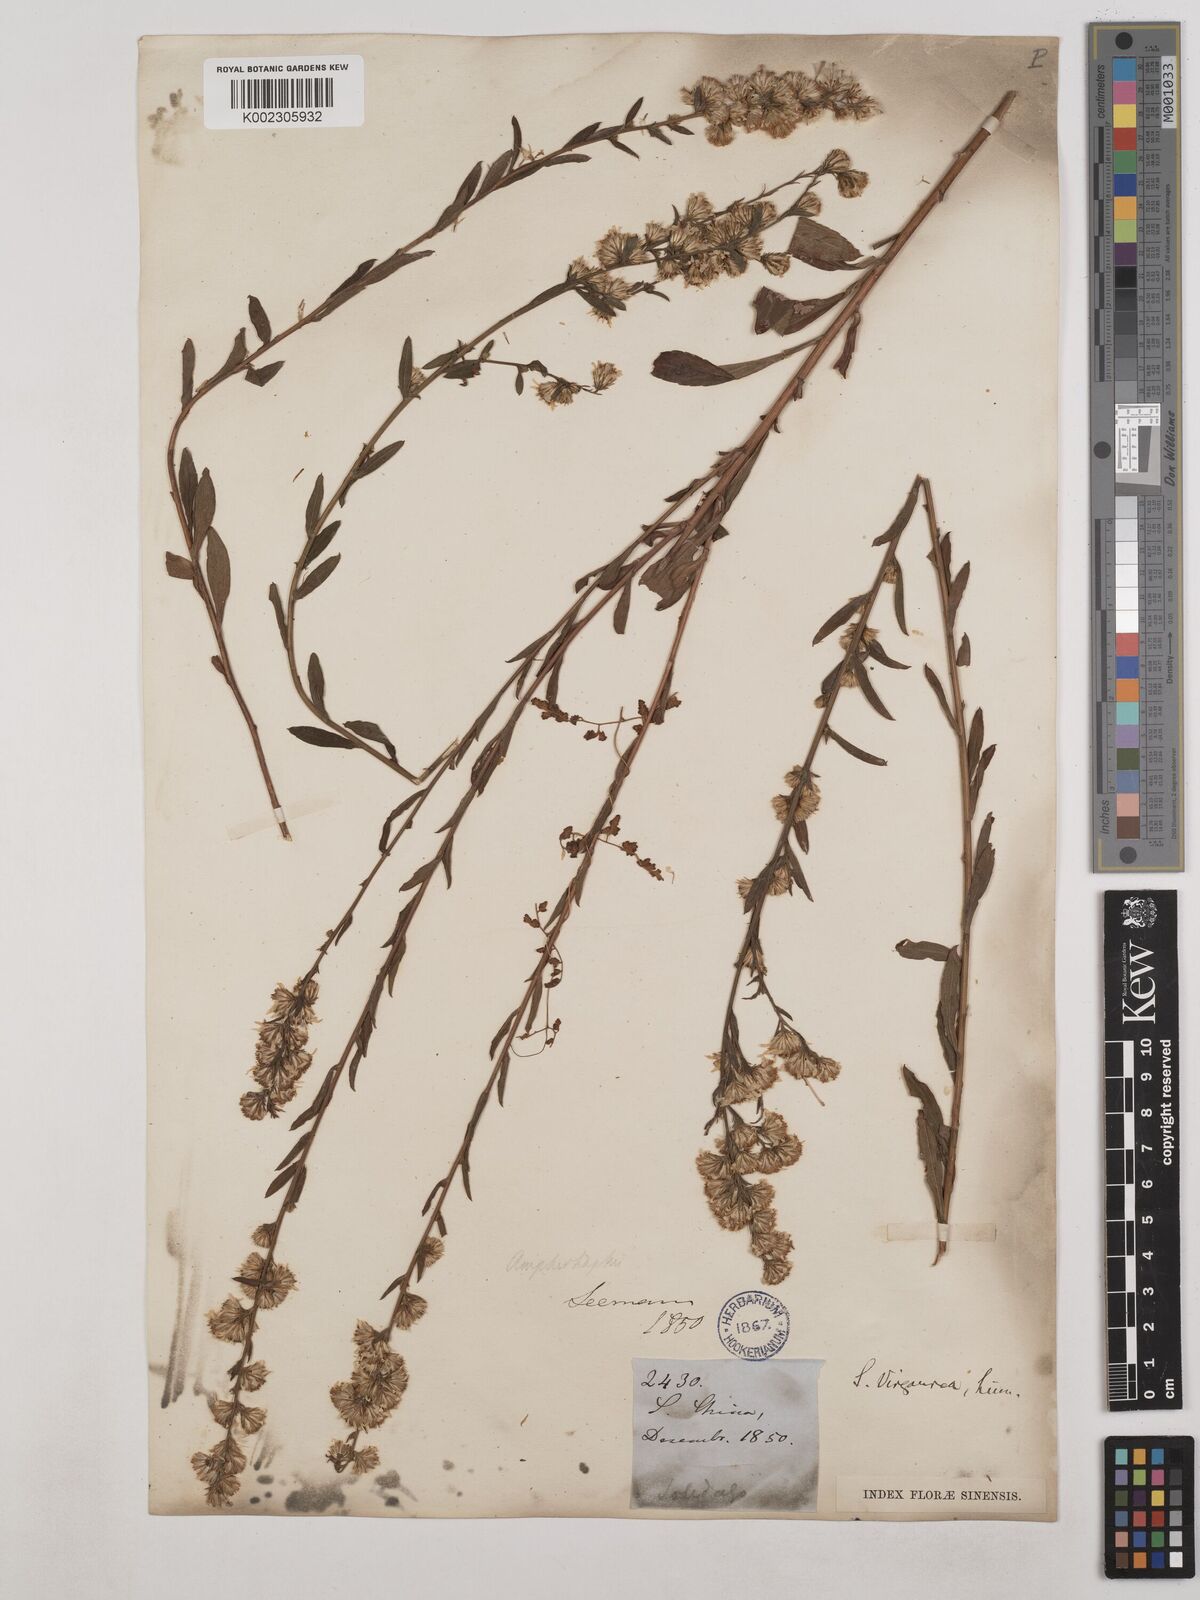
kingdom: Plantae
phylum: Tracheophyta
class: Magnoliopsida
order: Asterales
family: Asteraceae
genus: Solidago
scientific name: Solidago virgaurea
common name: Goldenrod
